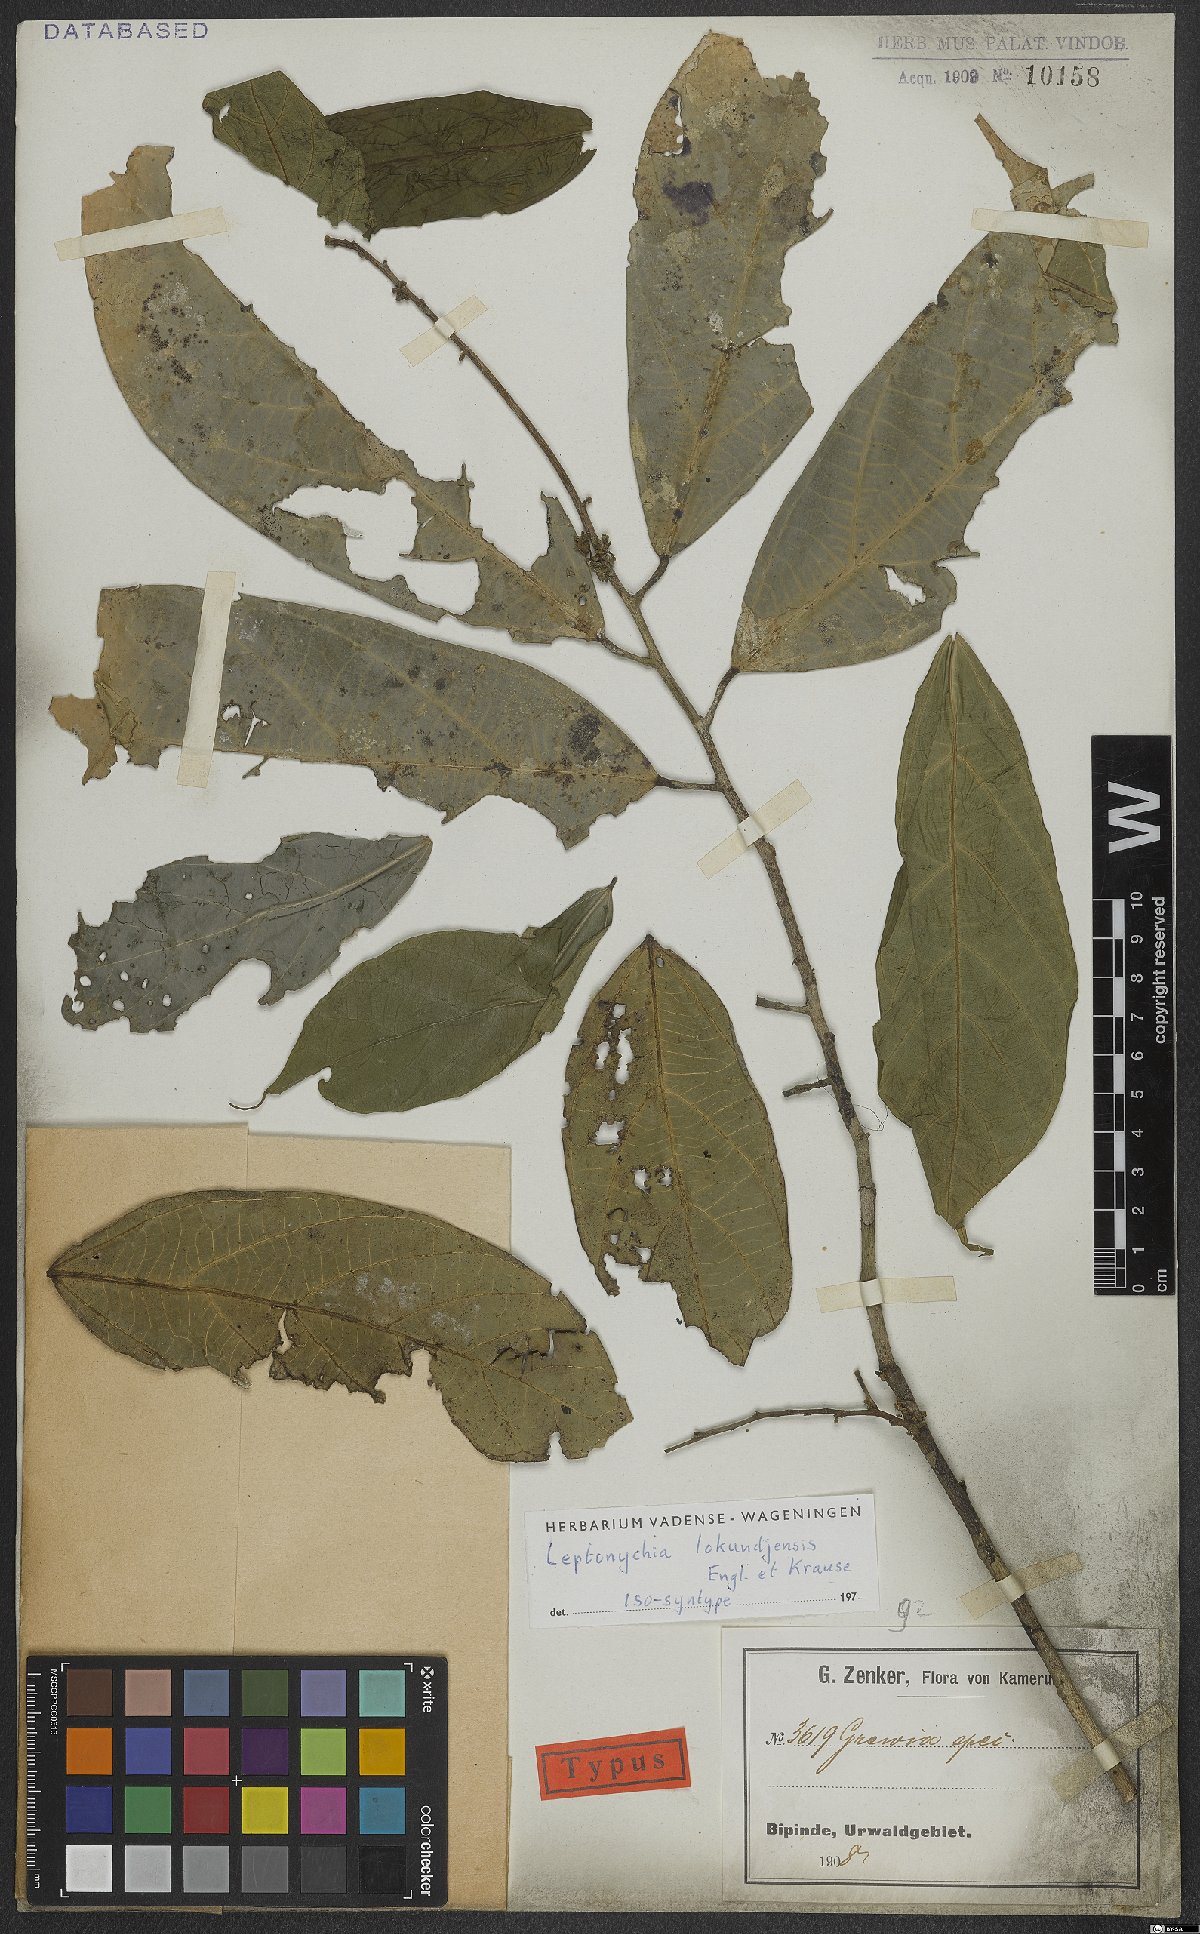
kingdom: Plantae
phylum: Tracheophyta
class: Magnoliopsida
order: Malvales
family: Malvaceae
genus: Leptonychia
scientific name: Leptonychia lokundjensis
